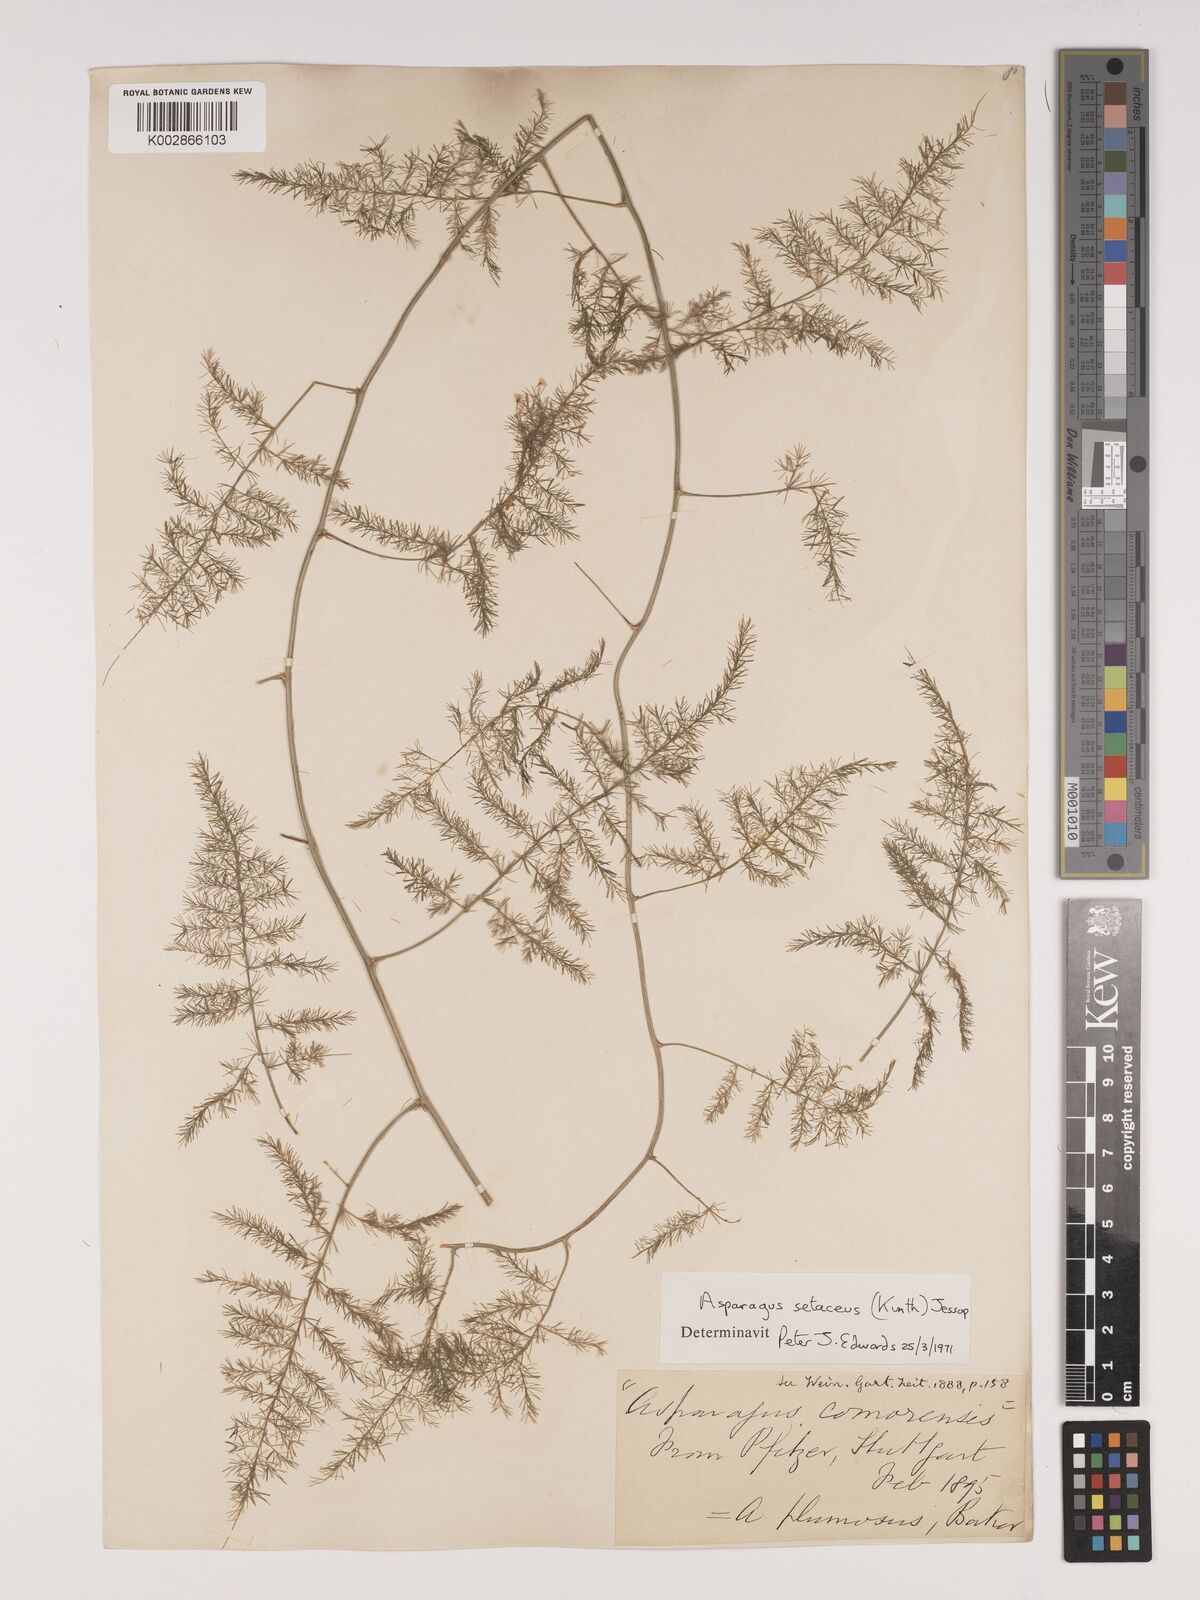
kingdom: Plantae
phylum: Tracheophyta
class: Liliopsida
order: Asparagales
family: Asparagaceae
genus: Asparagus
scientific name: Asparagus setaceus
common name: Common asparagus fern
